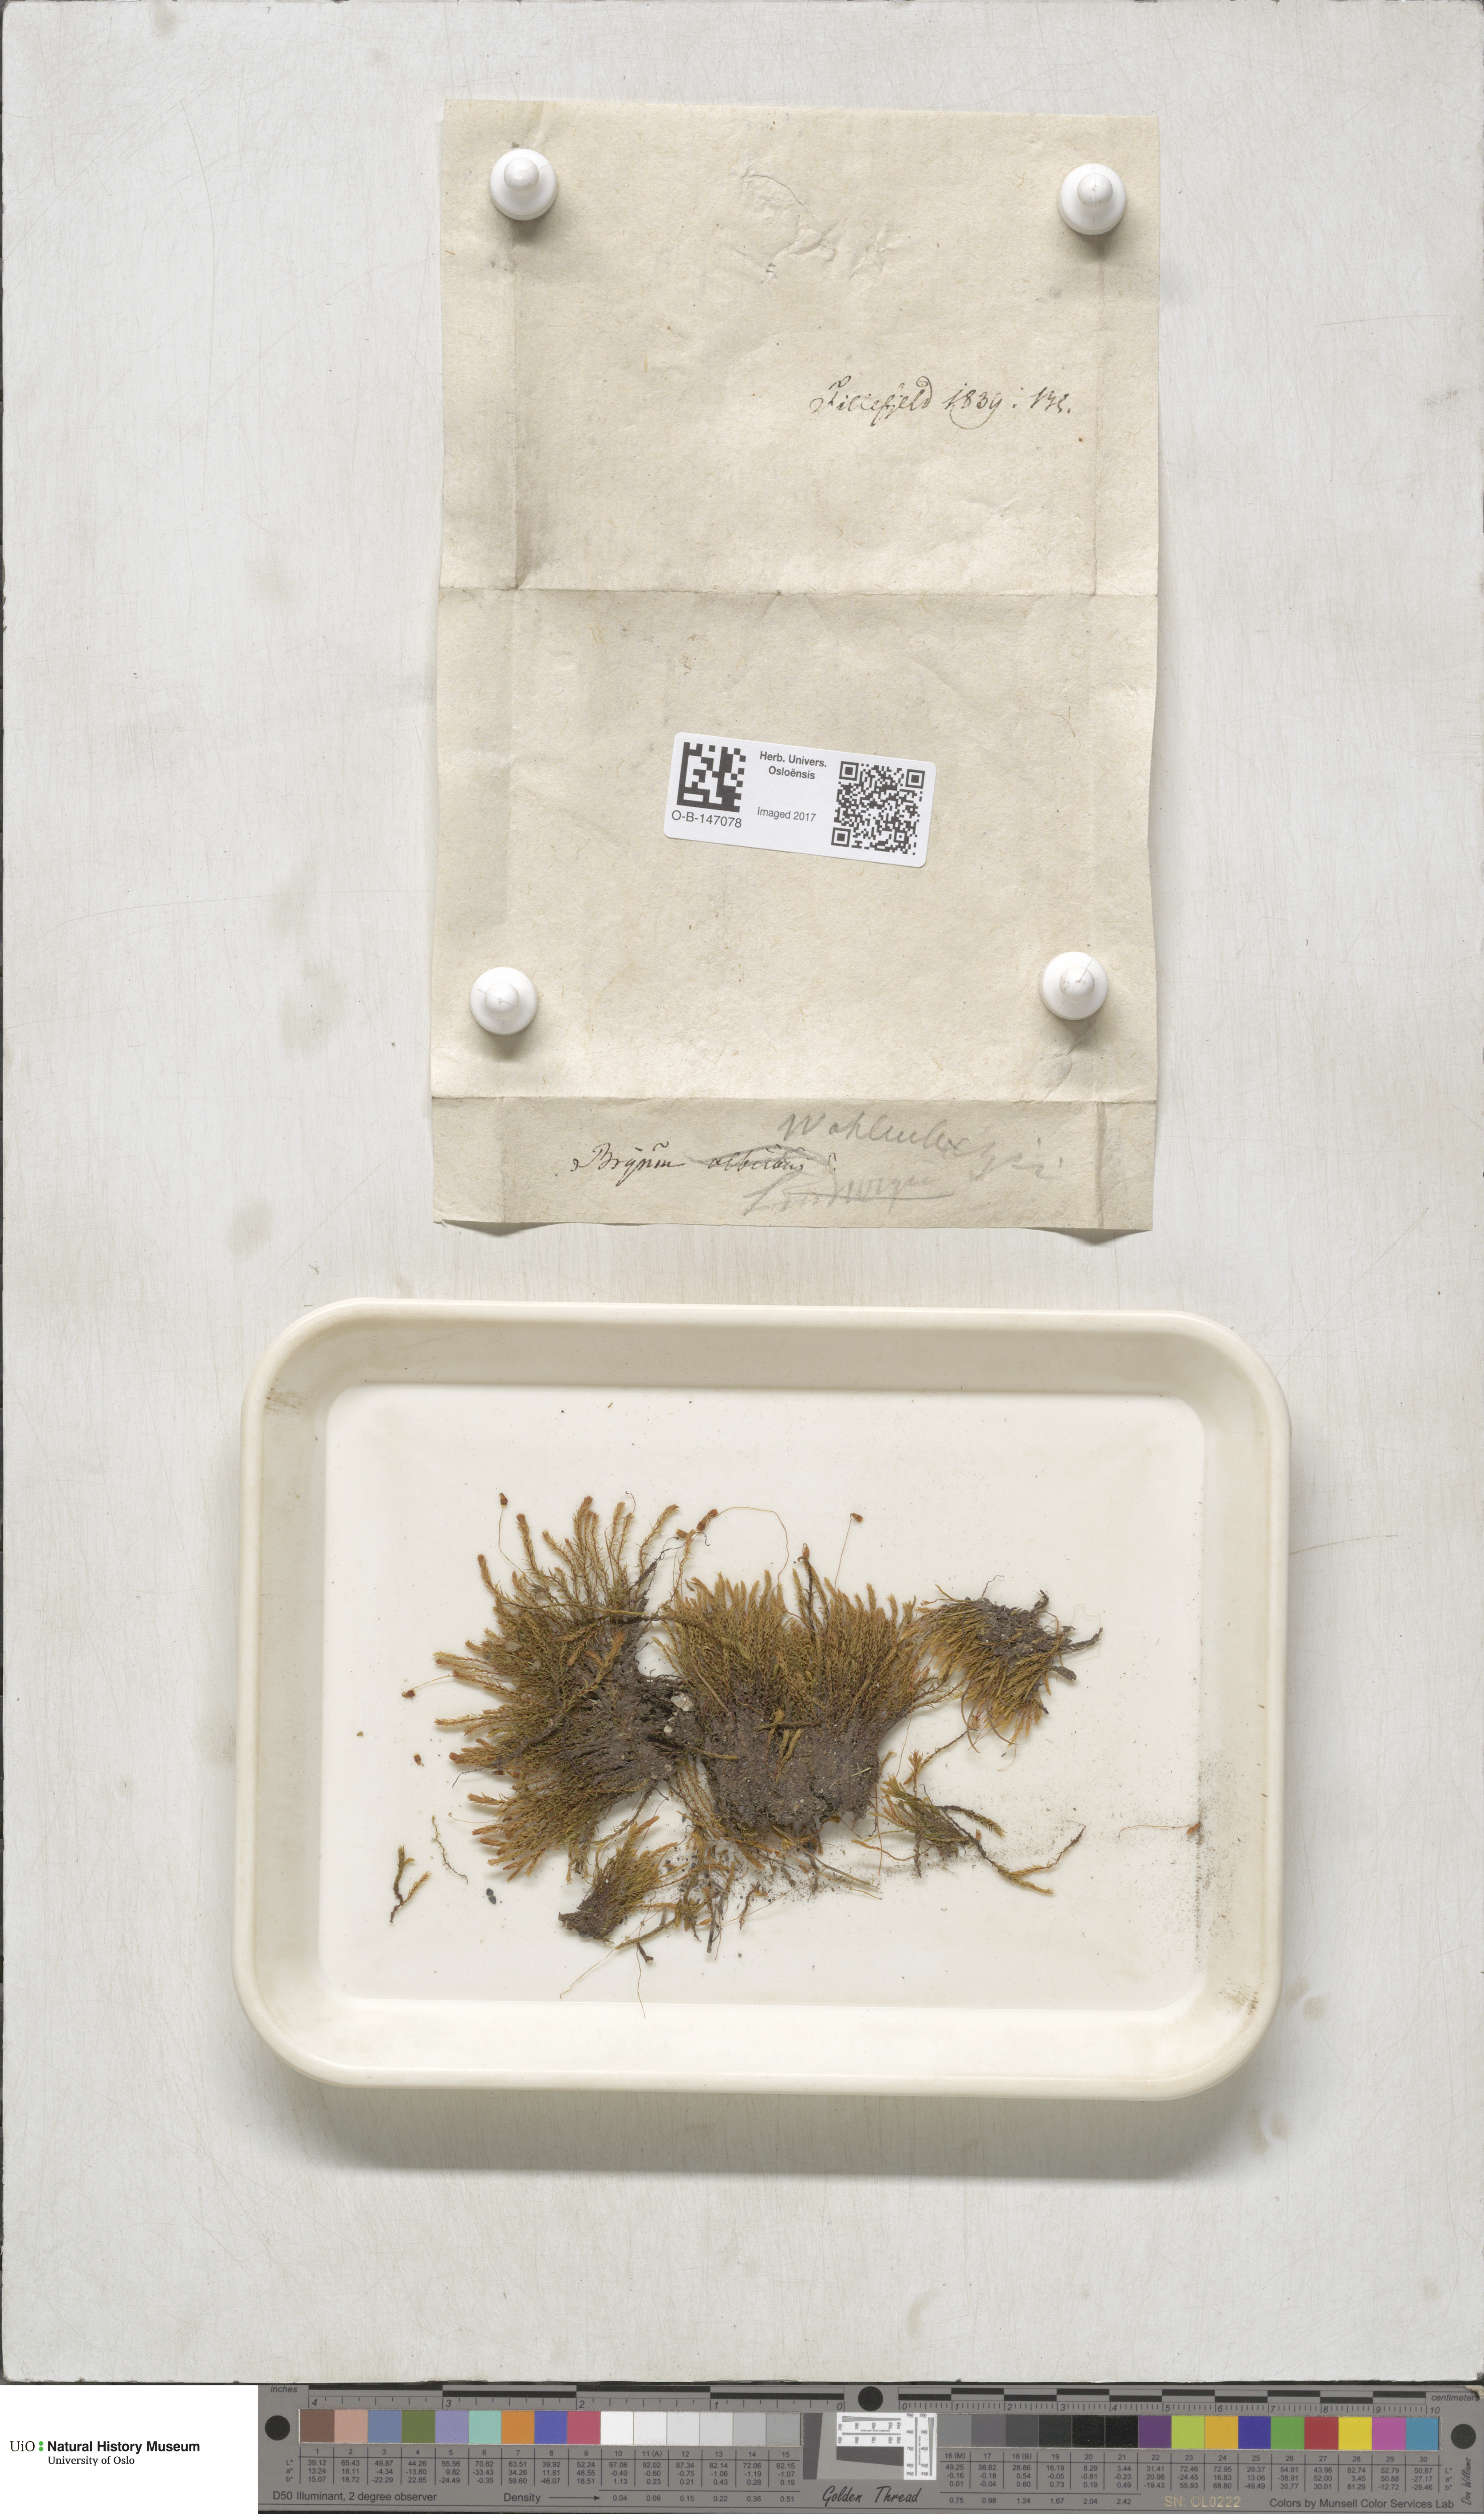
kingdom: Plantae
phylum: Bryophyta
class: Bryopsida
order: Bryales
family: Mniaceae
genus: Pohlia
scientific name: Pohlia wahlenbergii
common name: Wahlenberg's nodding moss
